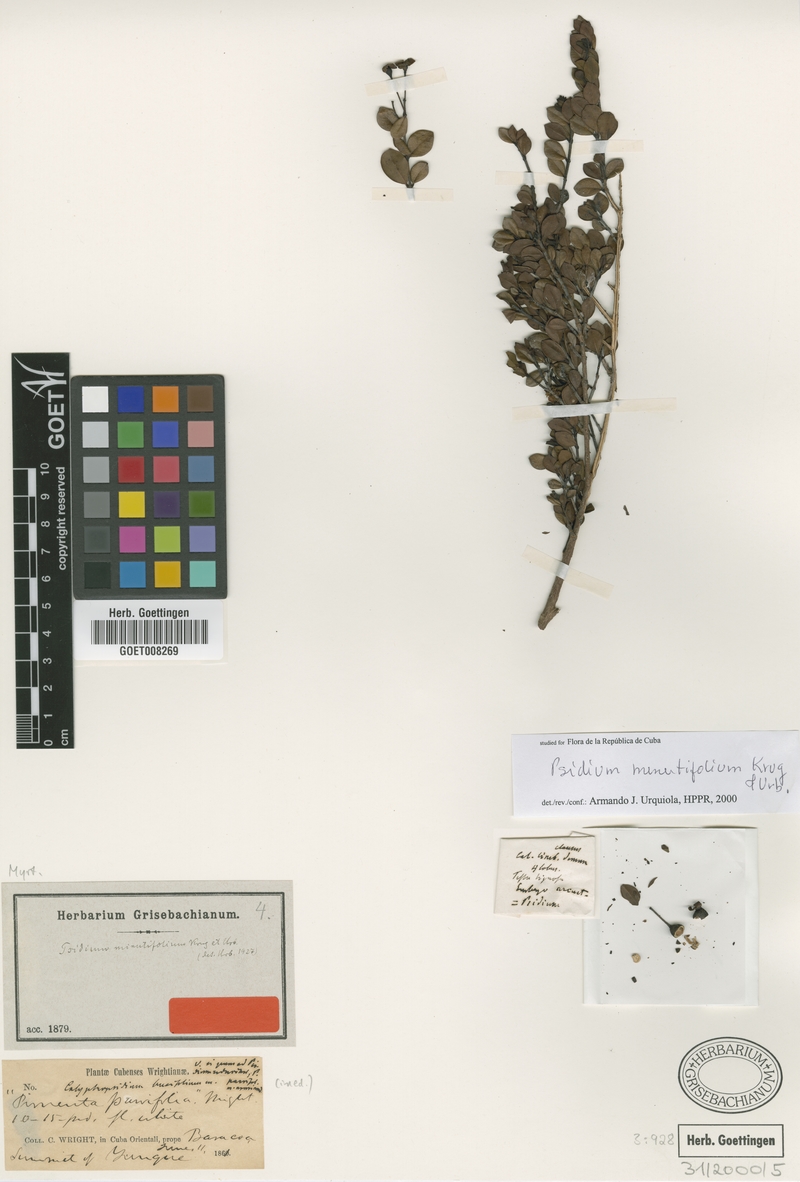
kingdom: Plantae
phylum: Tracheophyta
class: Magnoliopsida
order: Myrtales
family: Myrtaceae
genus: Psidium
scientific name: Psidium minutifolium
